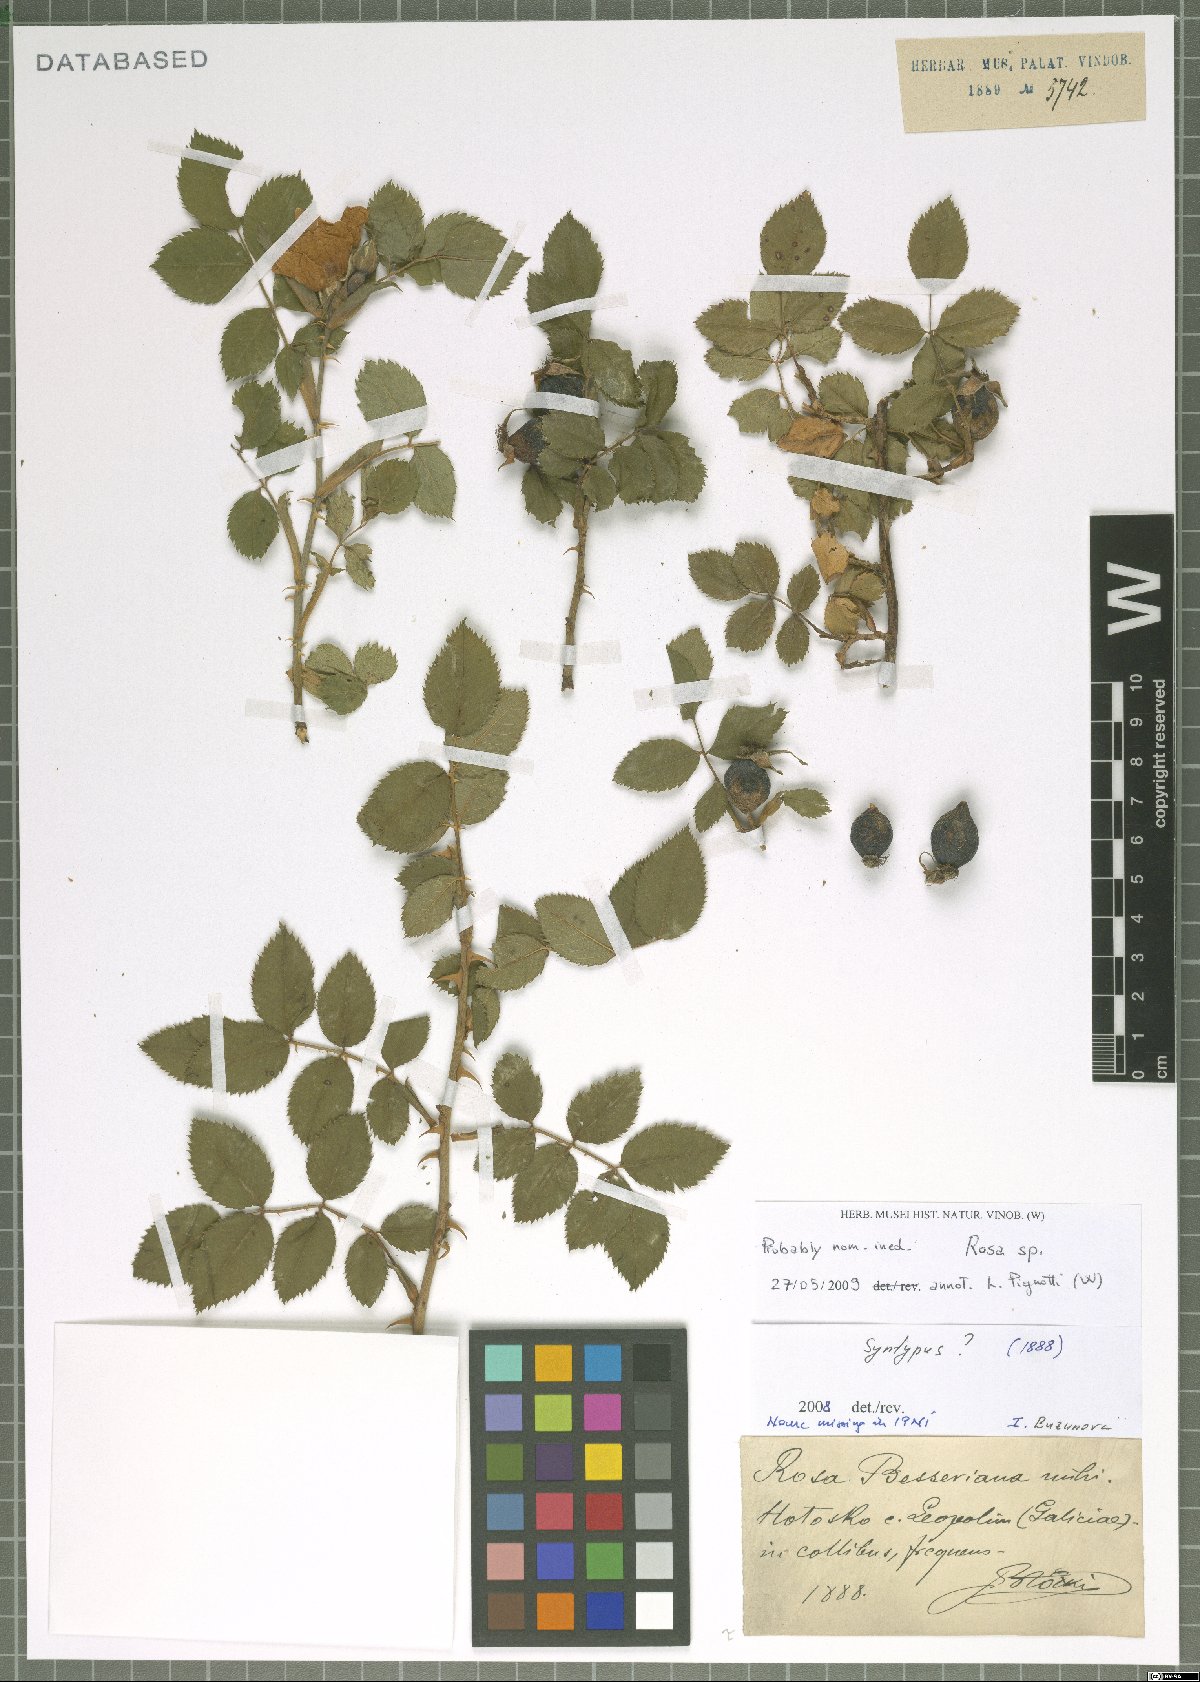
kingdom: Plantae
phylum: Tracheophyta
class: Magnoliopsida
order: Rosales
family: Rosaceae
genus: Rosa
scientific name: Rosa
